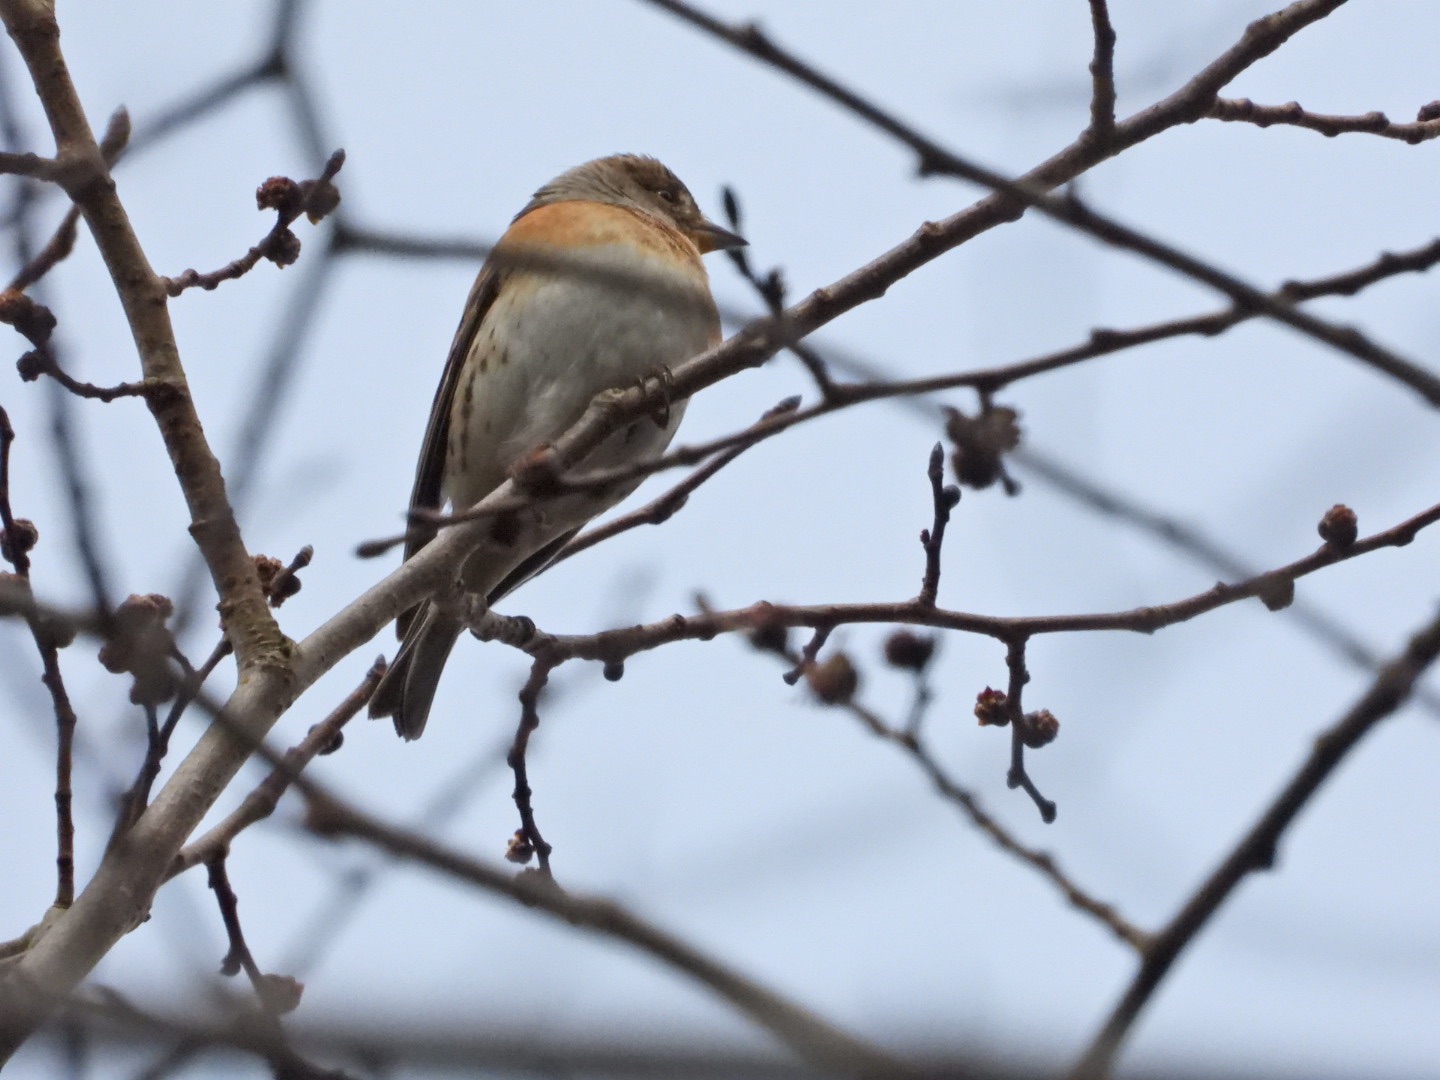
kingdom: Animalia
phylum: Chordata
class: Aves
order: Passeriformes
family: Fringillidae
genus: Fringilla
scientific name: Fringilla montifringilla
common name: Kvækerfinke
